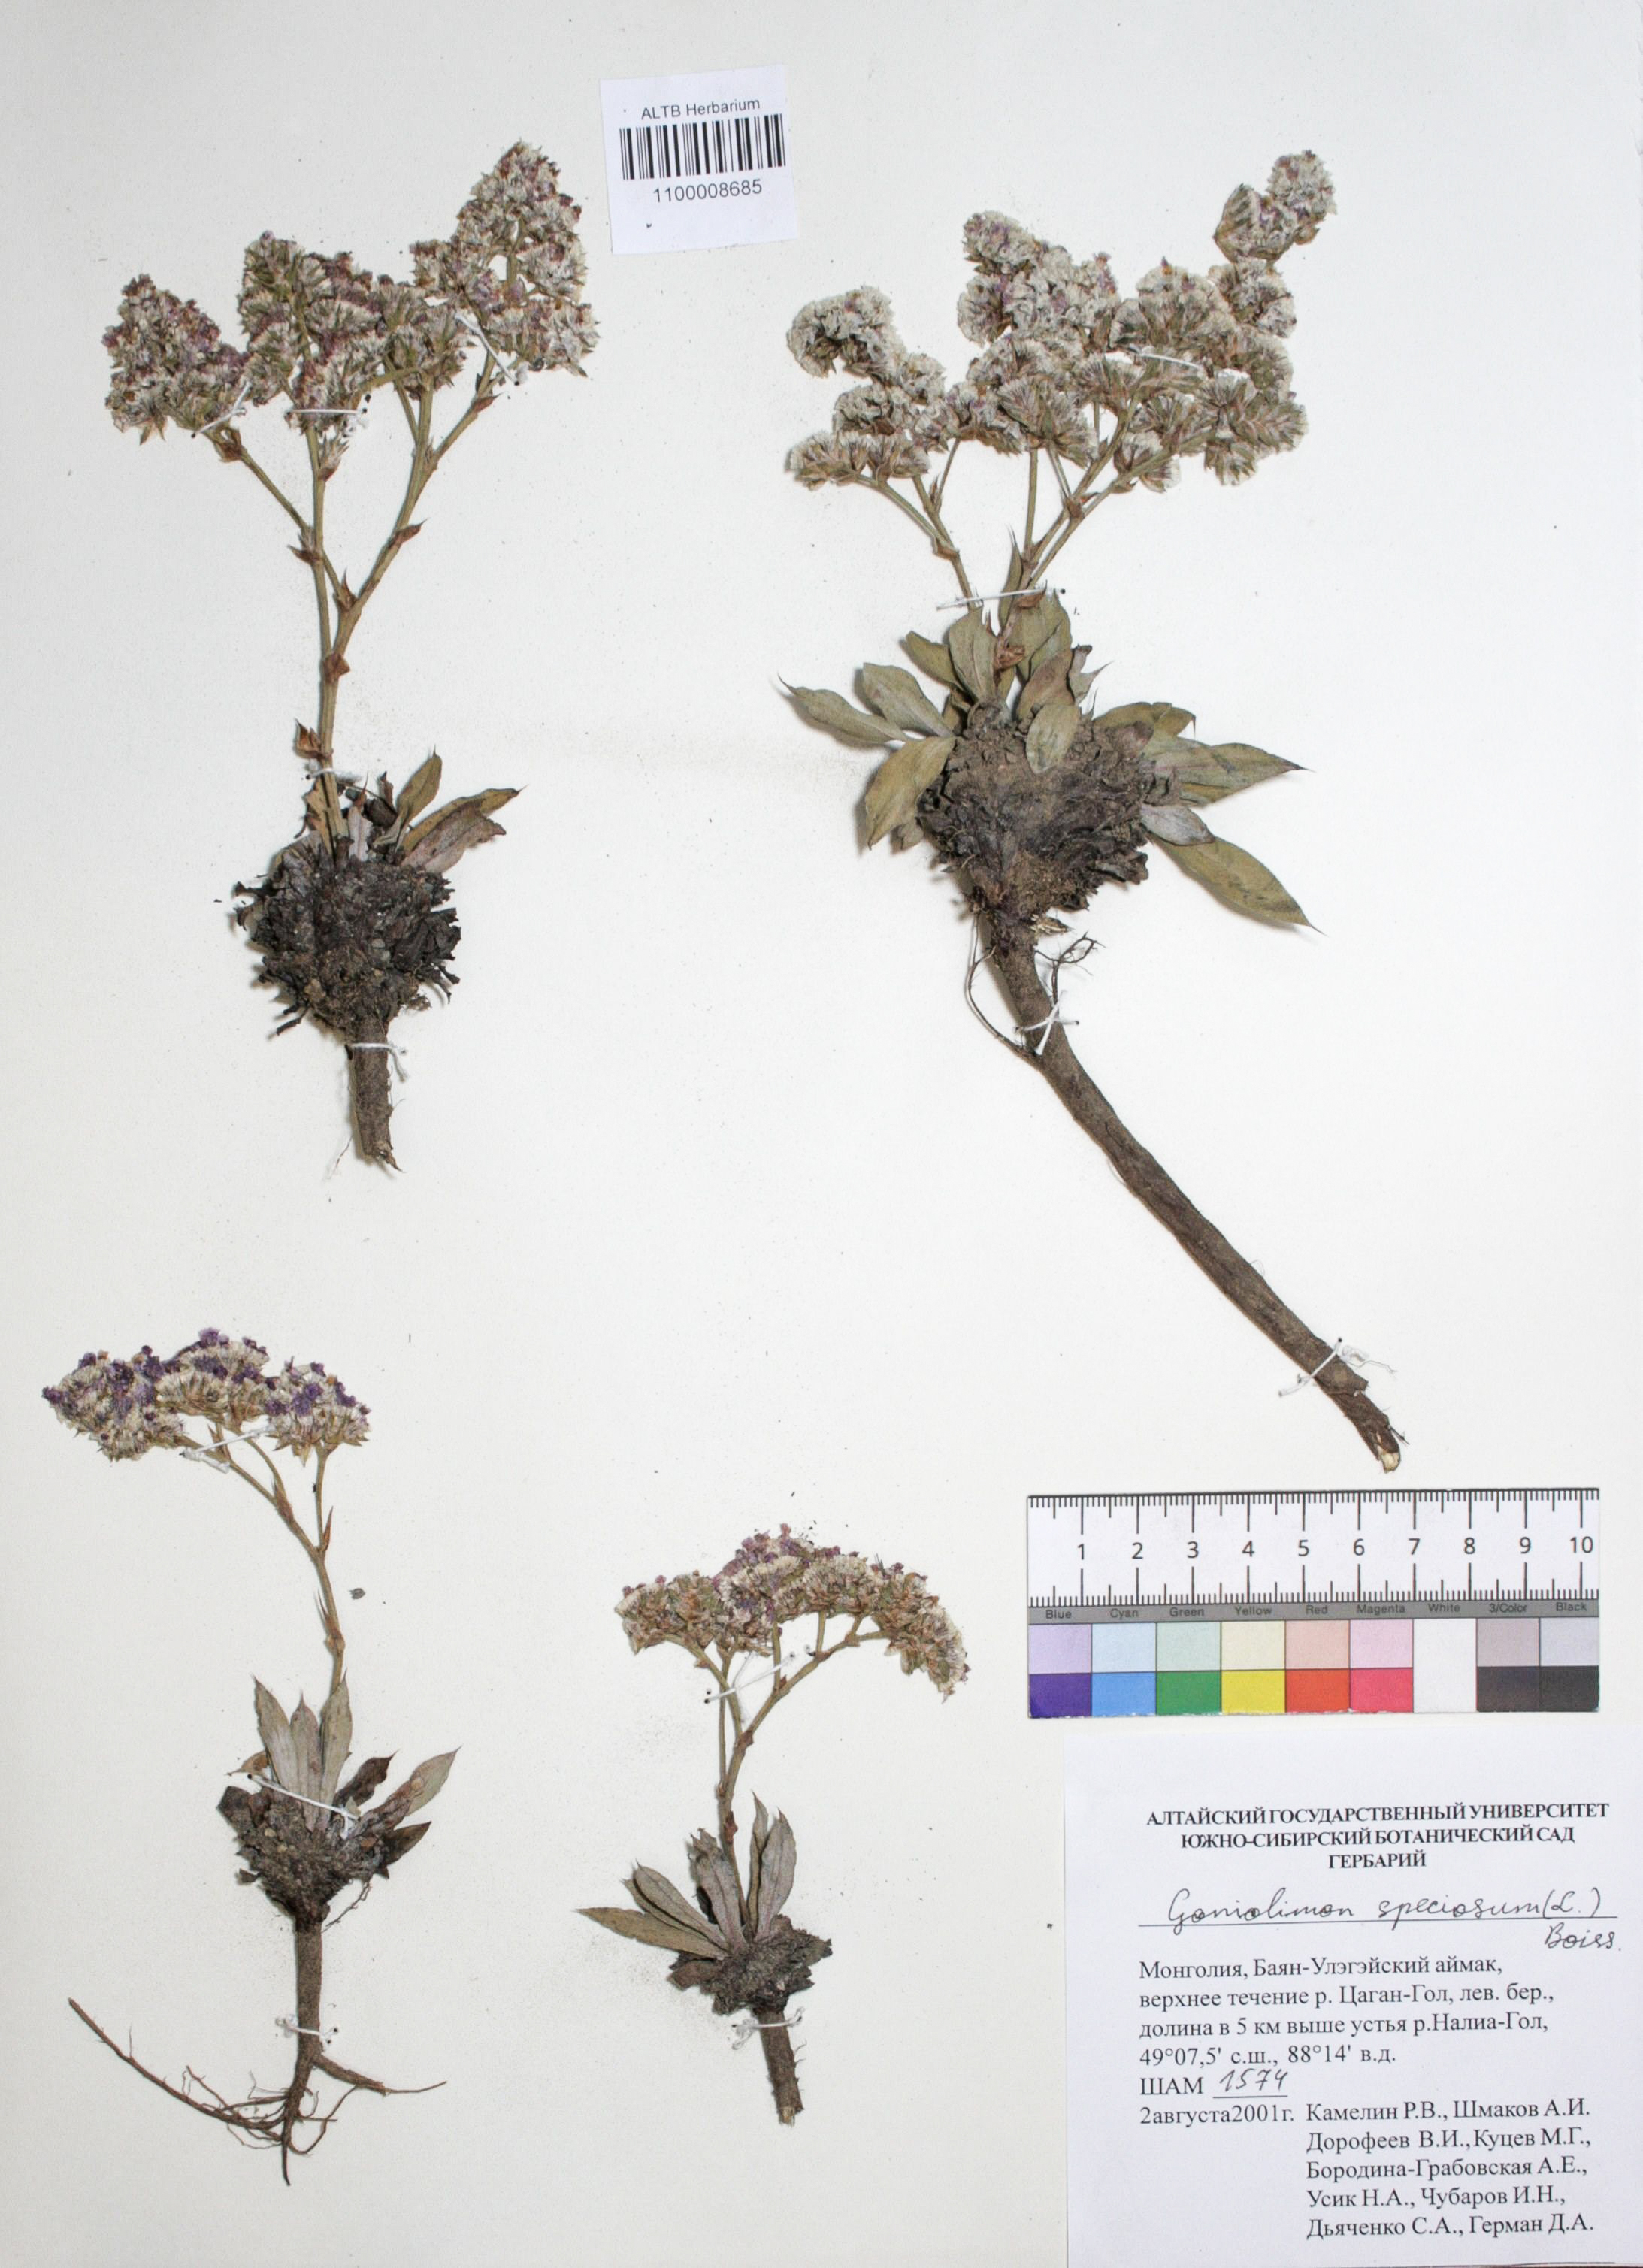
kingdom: Plantae
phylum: Tracheophyta
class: Magnoliopsida
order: Caryophyllales
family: Plumbaginaceae
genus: Goniolimon
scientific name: Goniolimon speciosum
